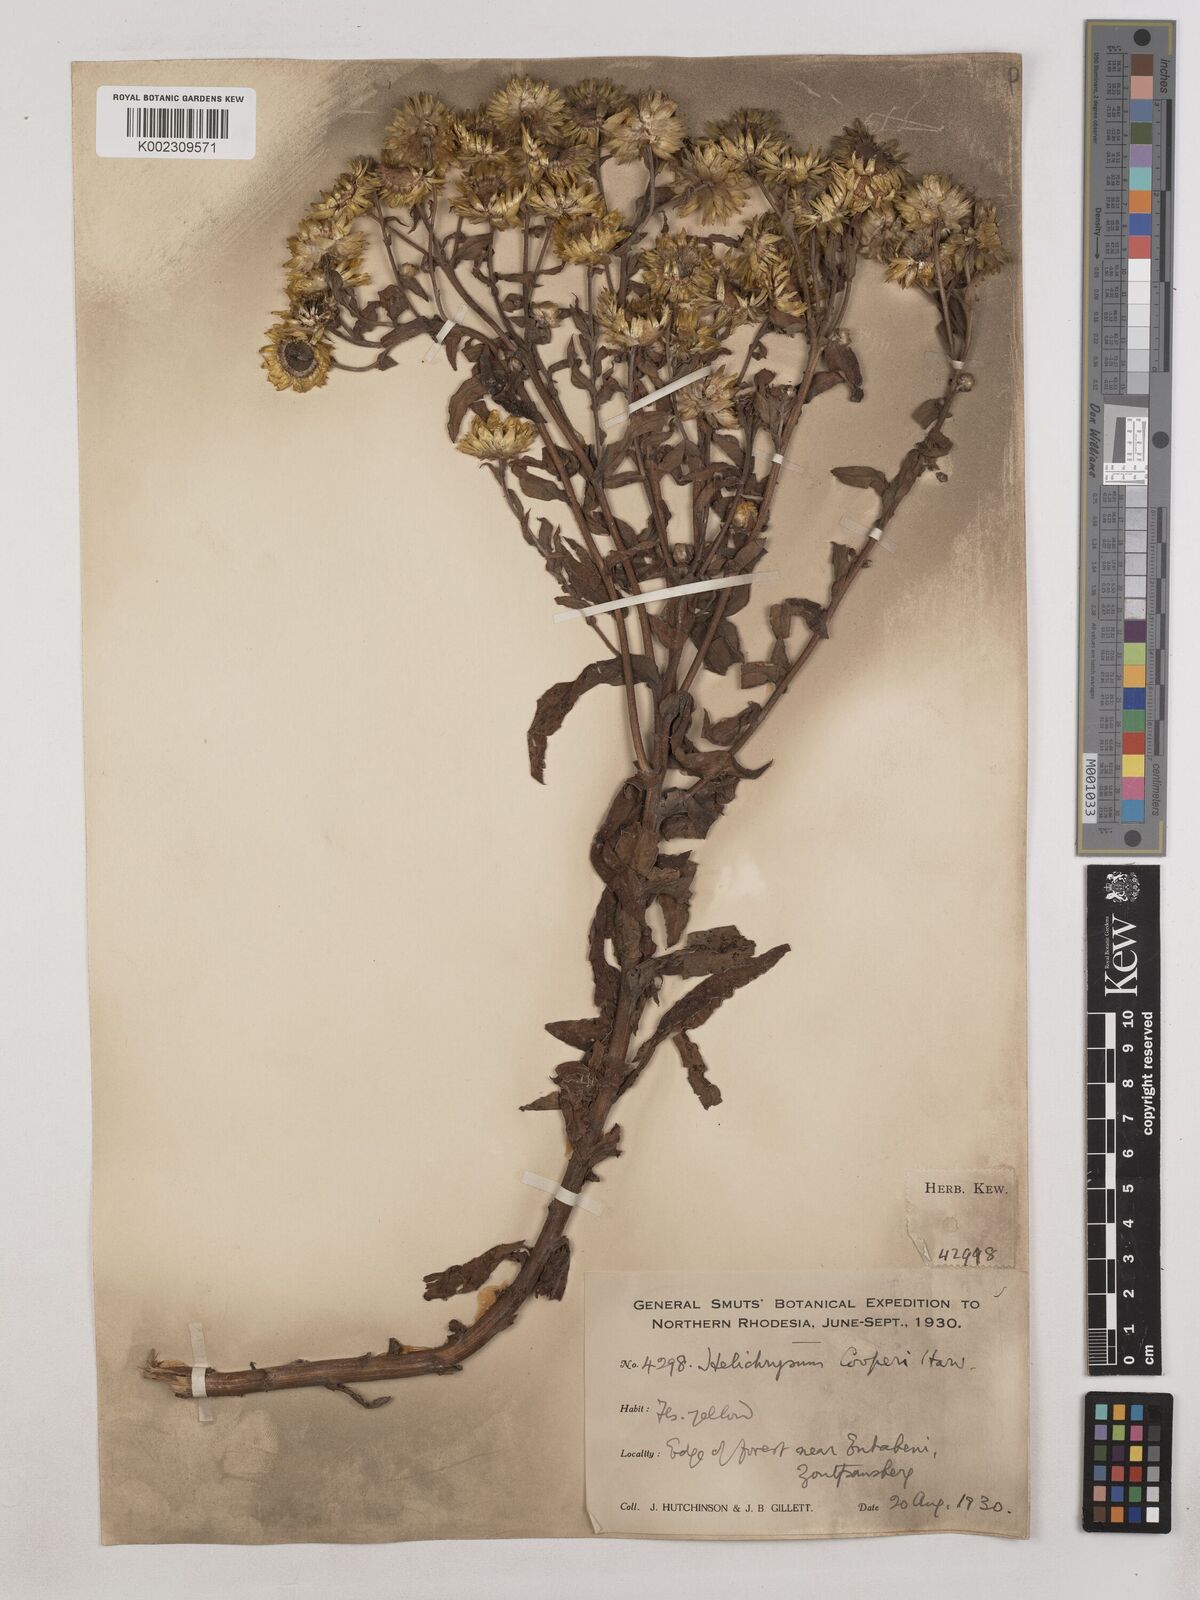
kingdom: Plantae
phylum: Tracheophyta
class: Magnoliopsida
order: Asterales
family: Asteraceae
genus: Helichrysum
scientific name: Helichrysum cooperi
